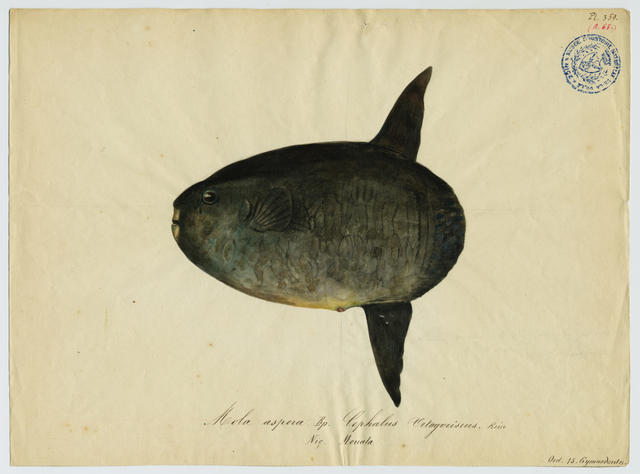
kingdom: Animalia
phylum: Chordata
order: Tetraodontiformes
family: Molidae
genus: Mola
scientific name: Mola mola
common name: Ocean sunfish
